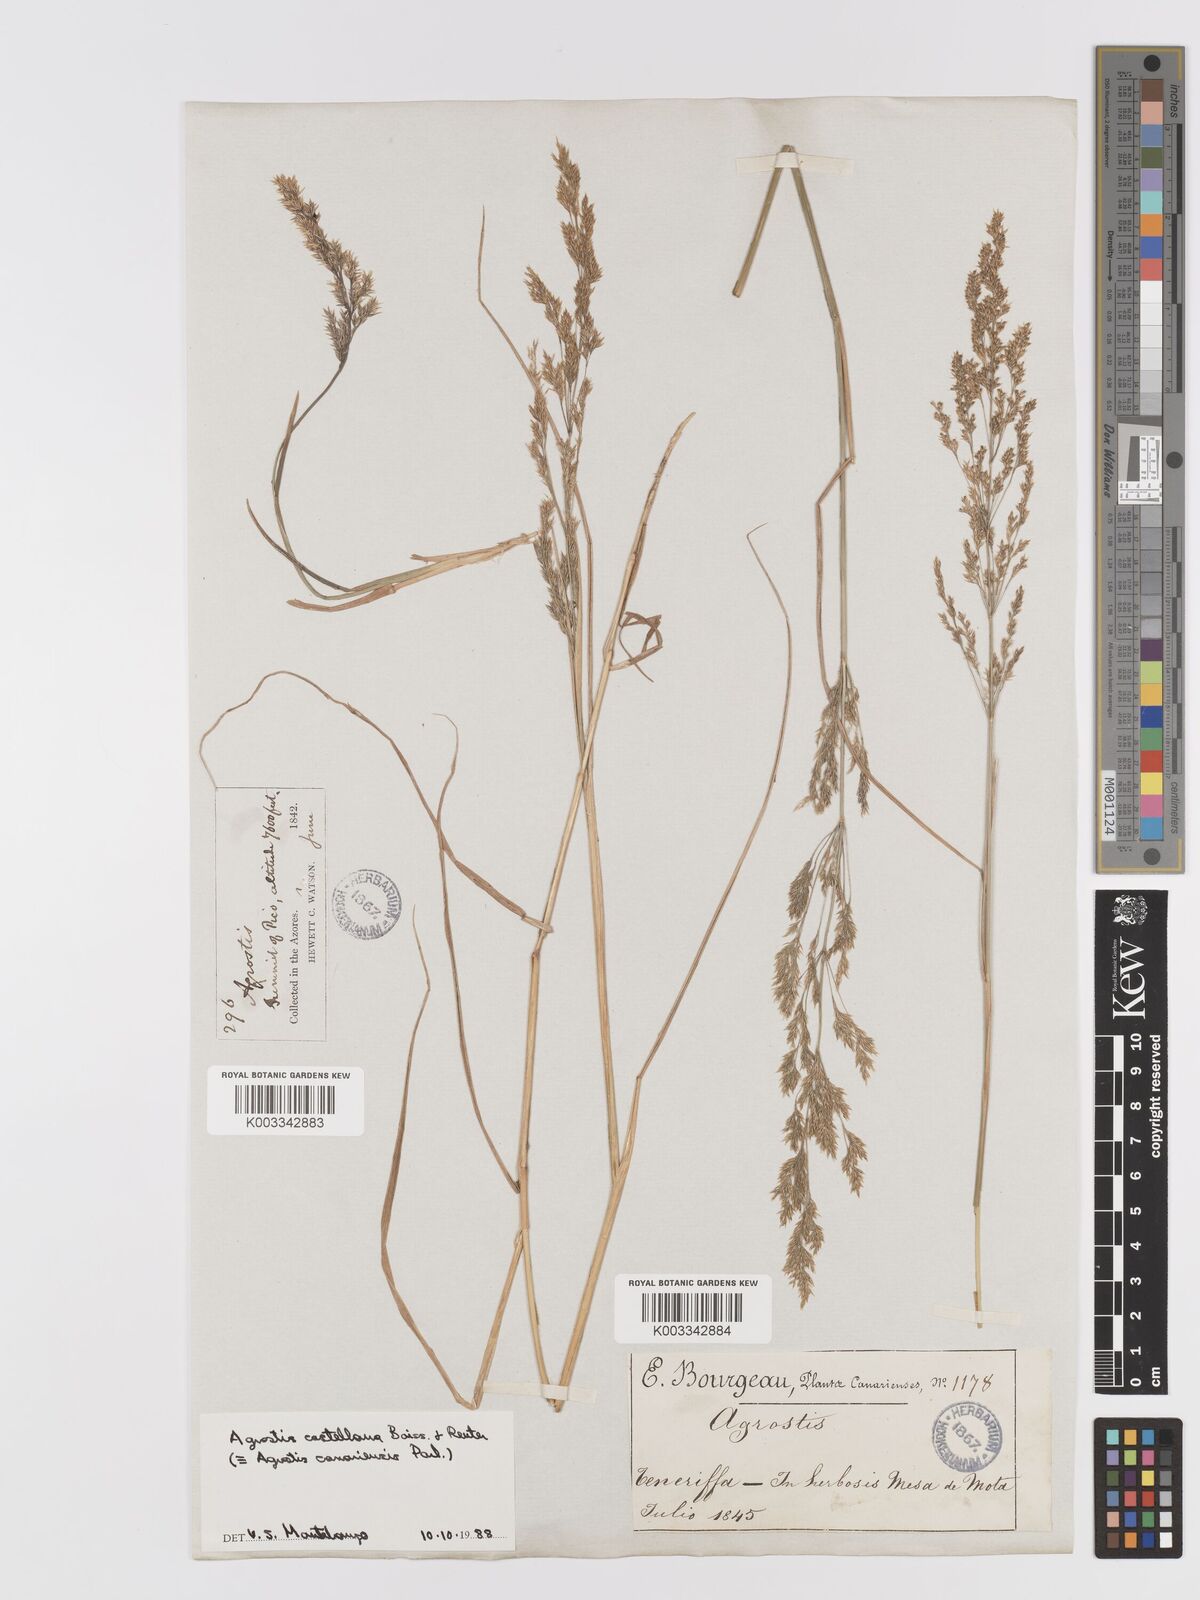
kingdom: Plantae
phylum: Tracheophyta
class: Liliopsida
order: Poales
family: Poaceae
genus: Agrostis
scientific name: Agrostis castellana
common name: Highland bent
